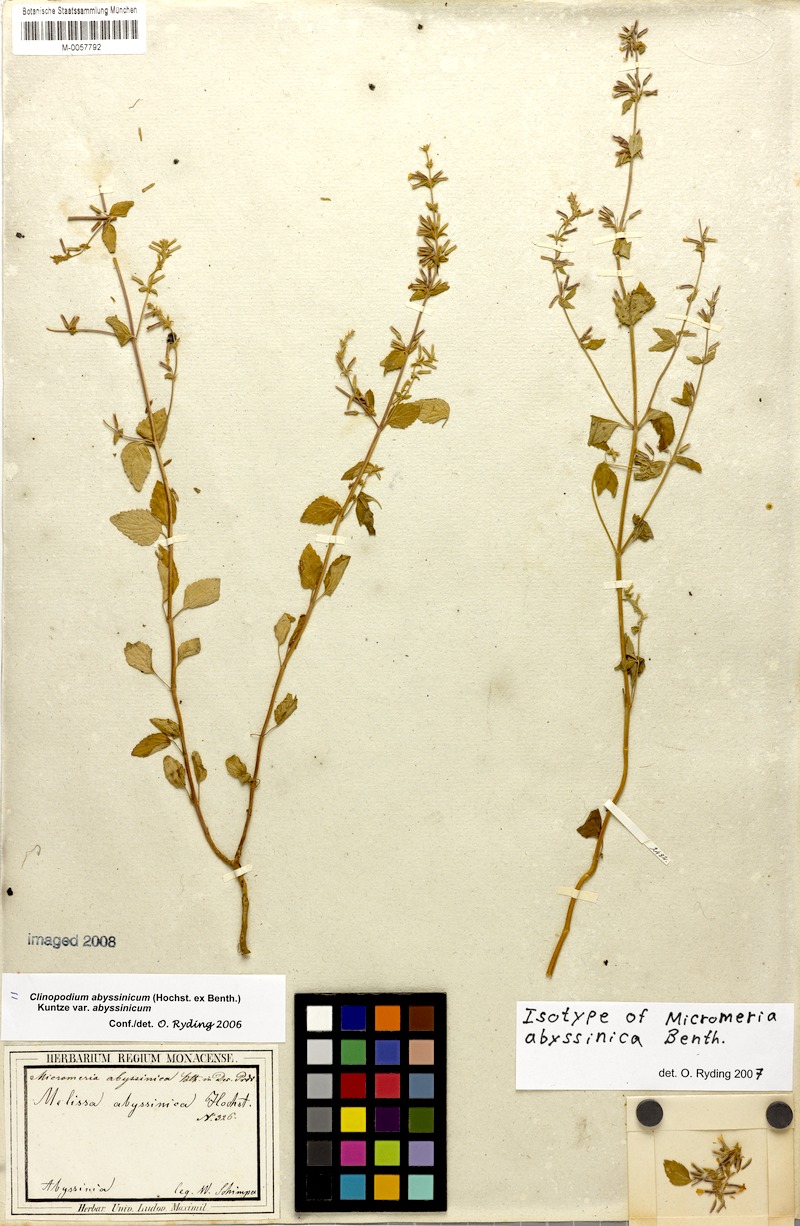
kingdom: Plantae
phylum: Tracheophyta
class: Magnoliopsida
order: Lamiales
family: Lamiaceae
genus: Clinopodium
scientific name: Clinopodium abyssinicum
